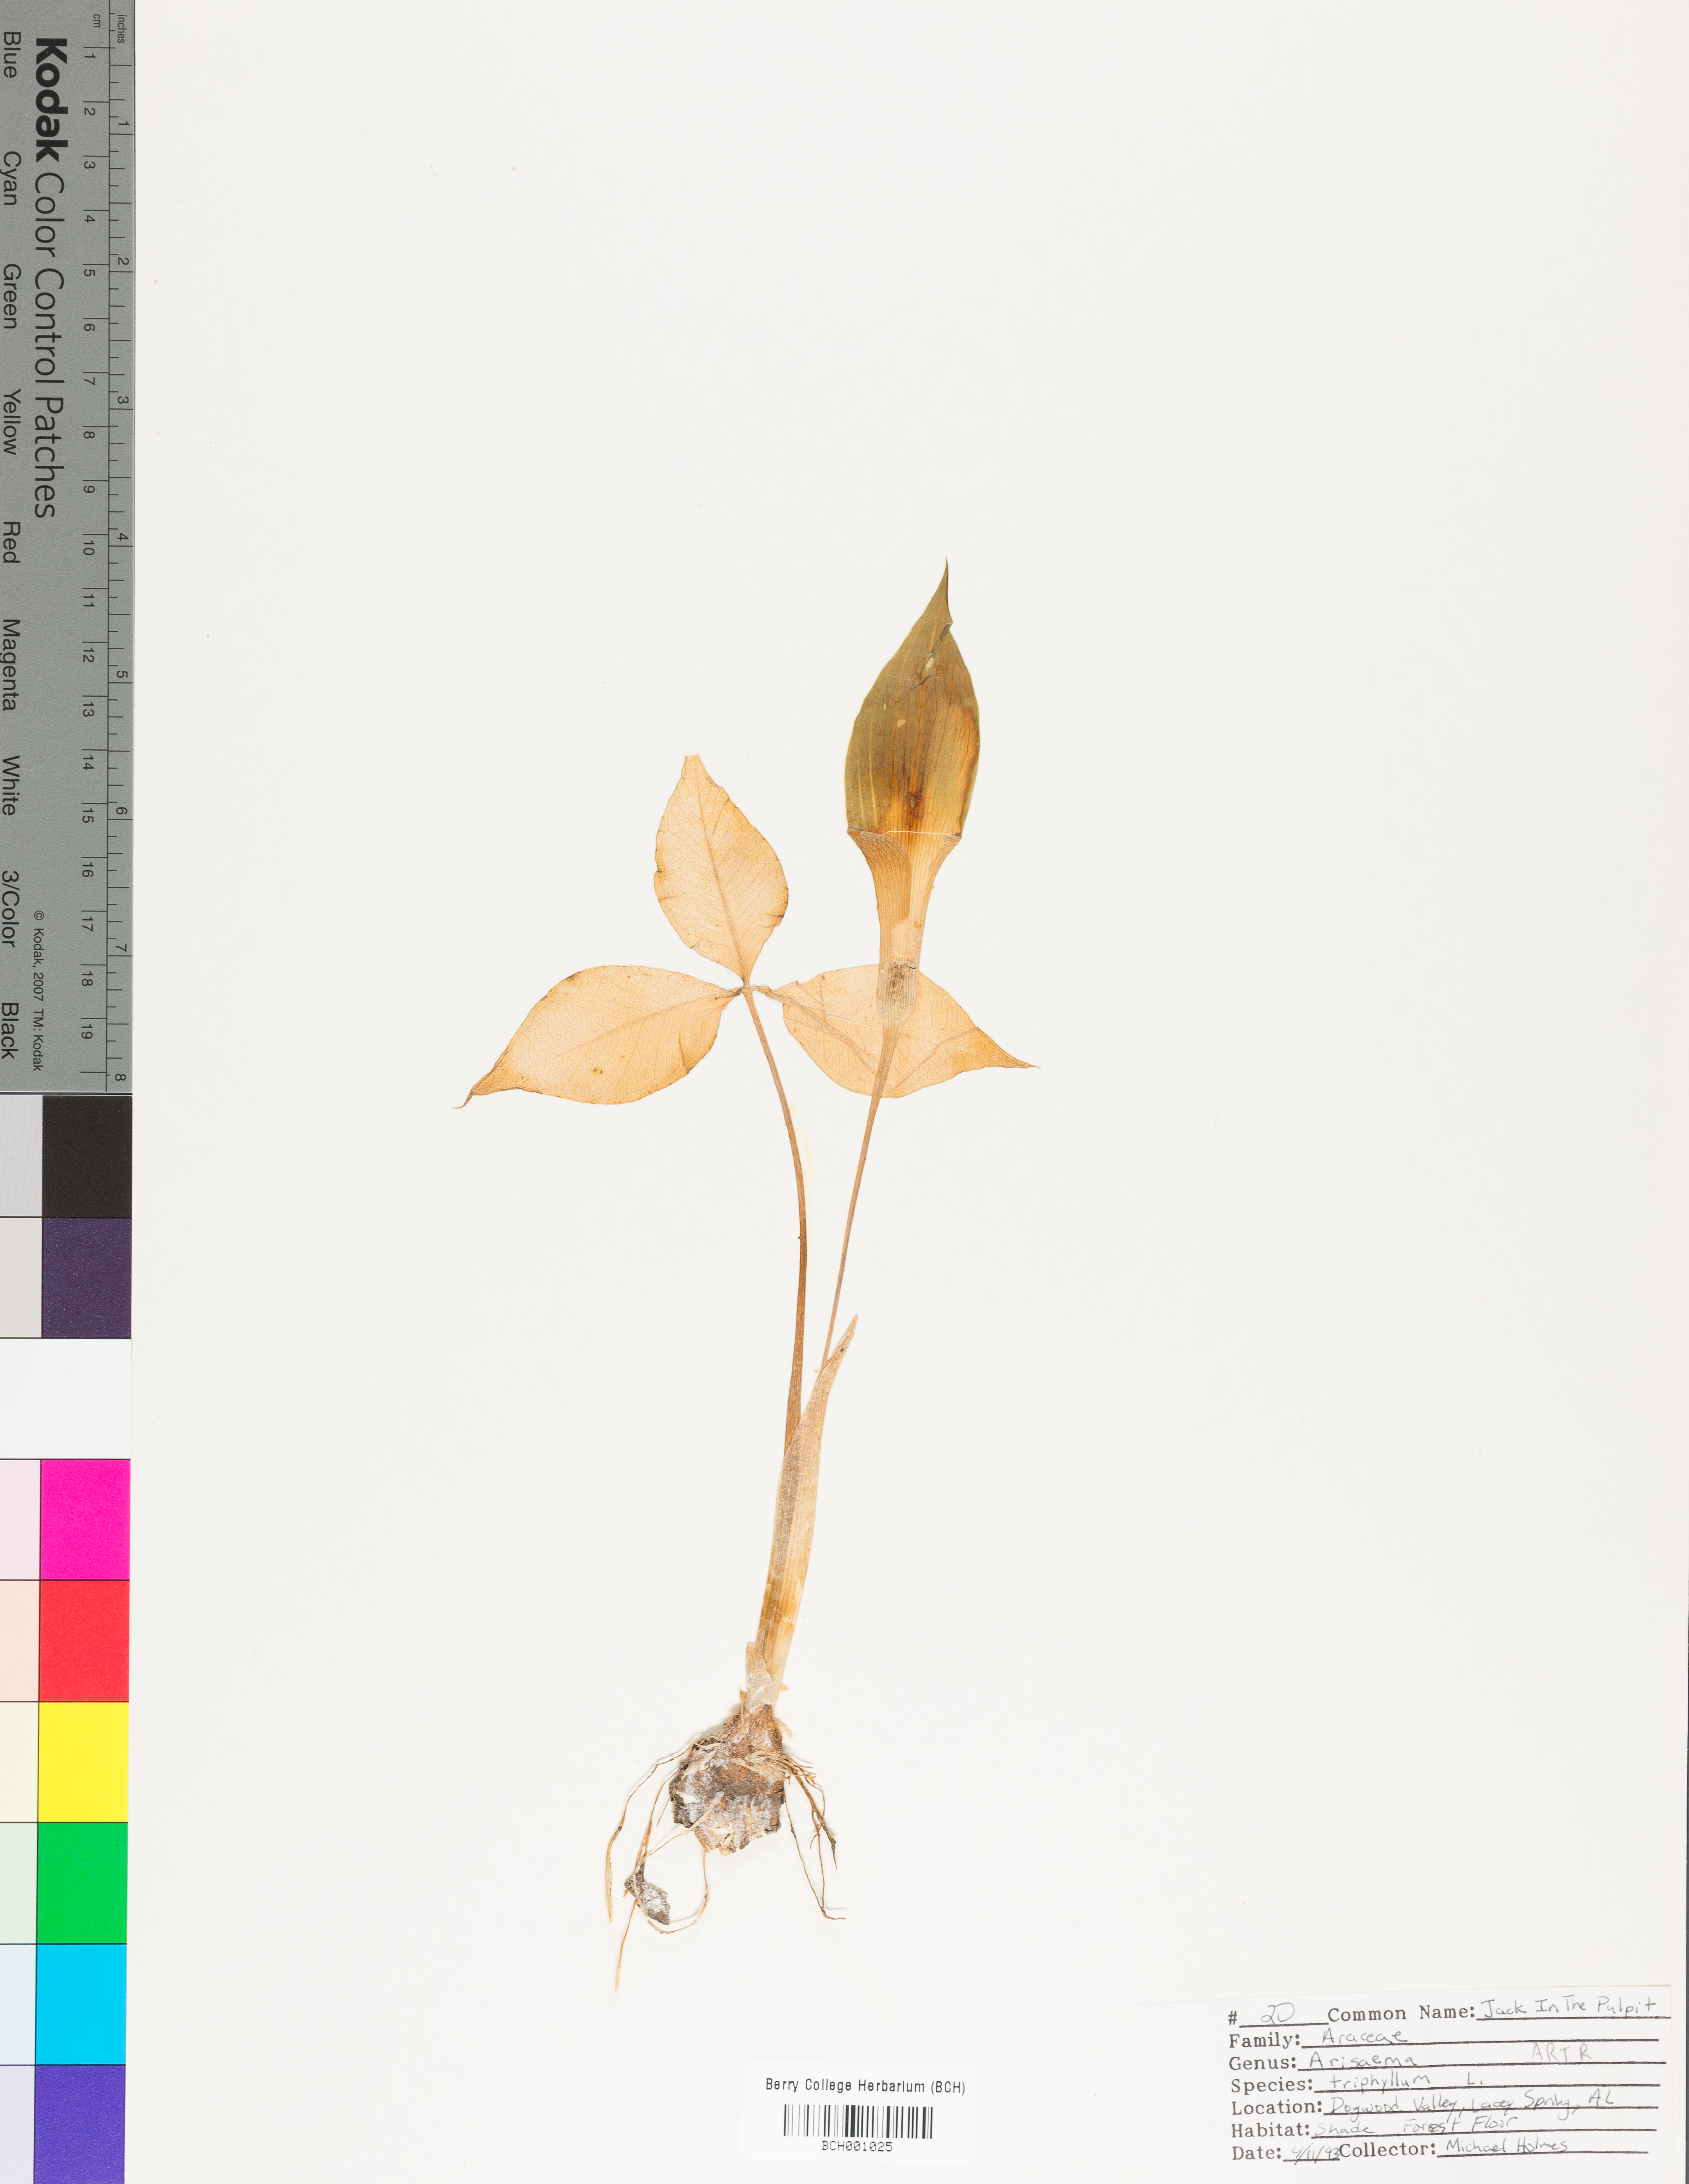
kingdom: Plantae
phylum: Tracheophyta
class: Liliopsida
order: Alismatales
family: Araceae
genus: Arisaema
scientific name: Arisaema triphyllum
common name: Jack-in-the-pulpit
